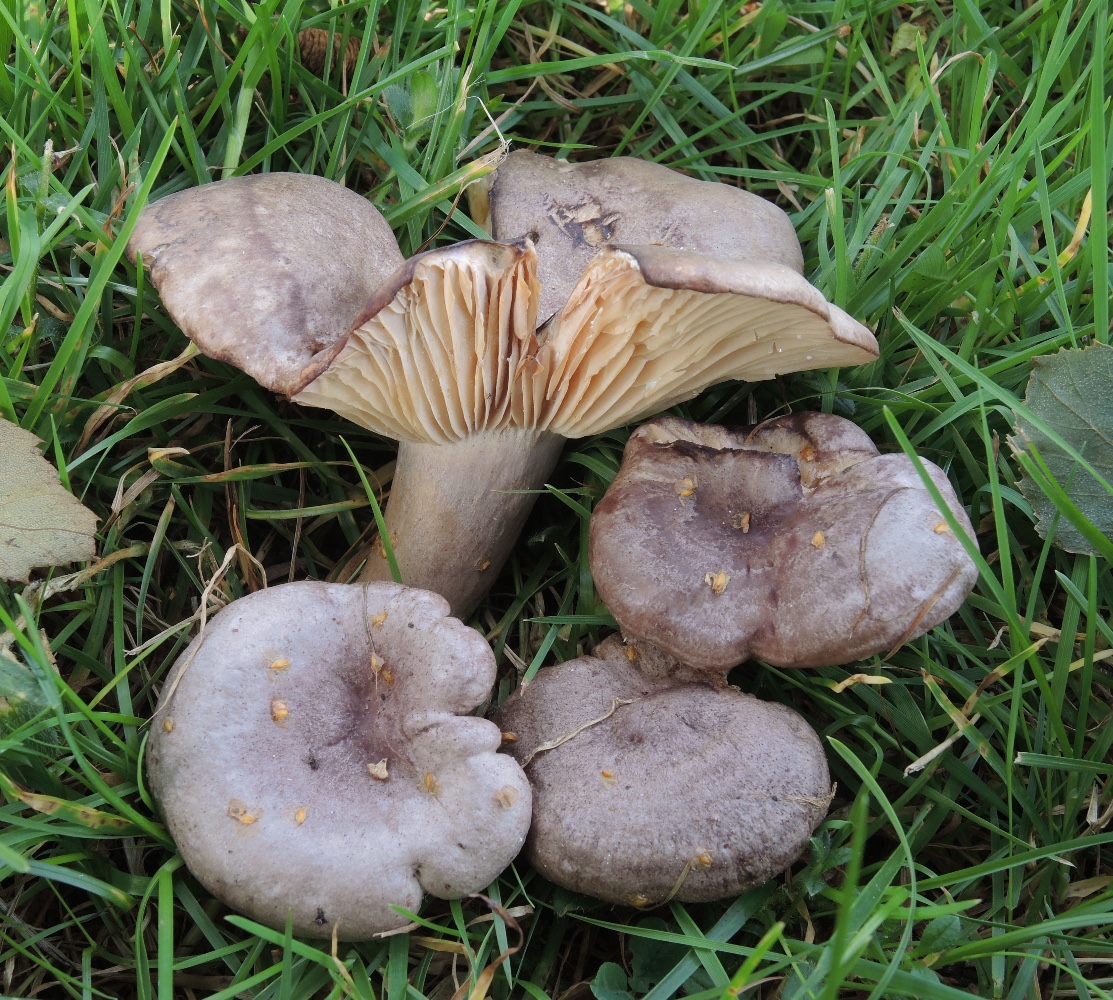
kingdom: Fungi
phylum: Basidiomycota
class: Agaricomycetes
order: Russulales
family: Russulaceae
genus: Lactarius
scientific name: Lactarius flexuosus
